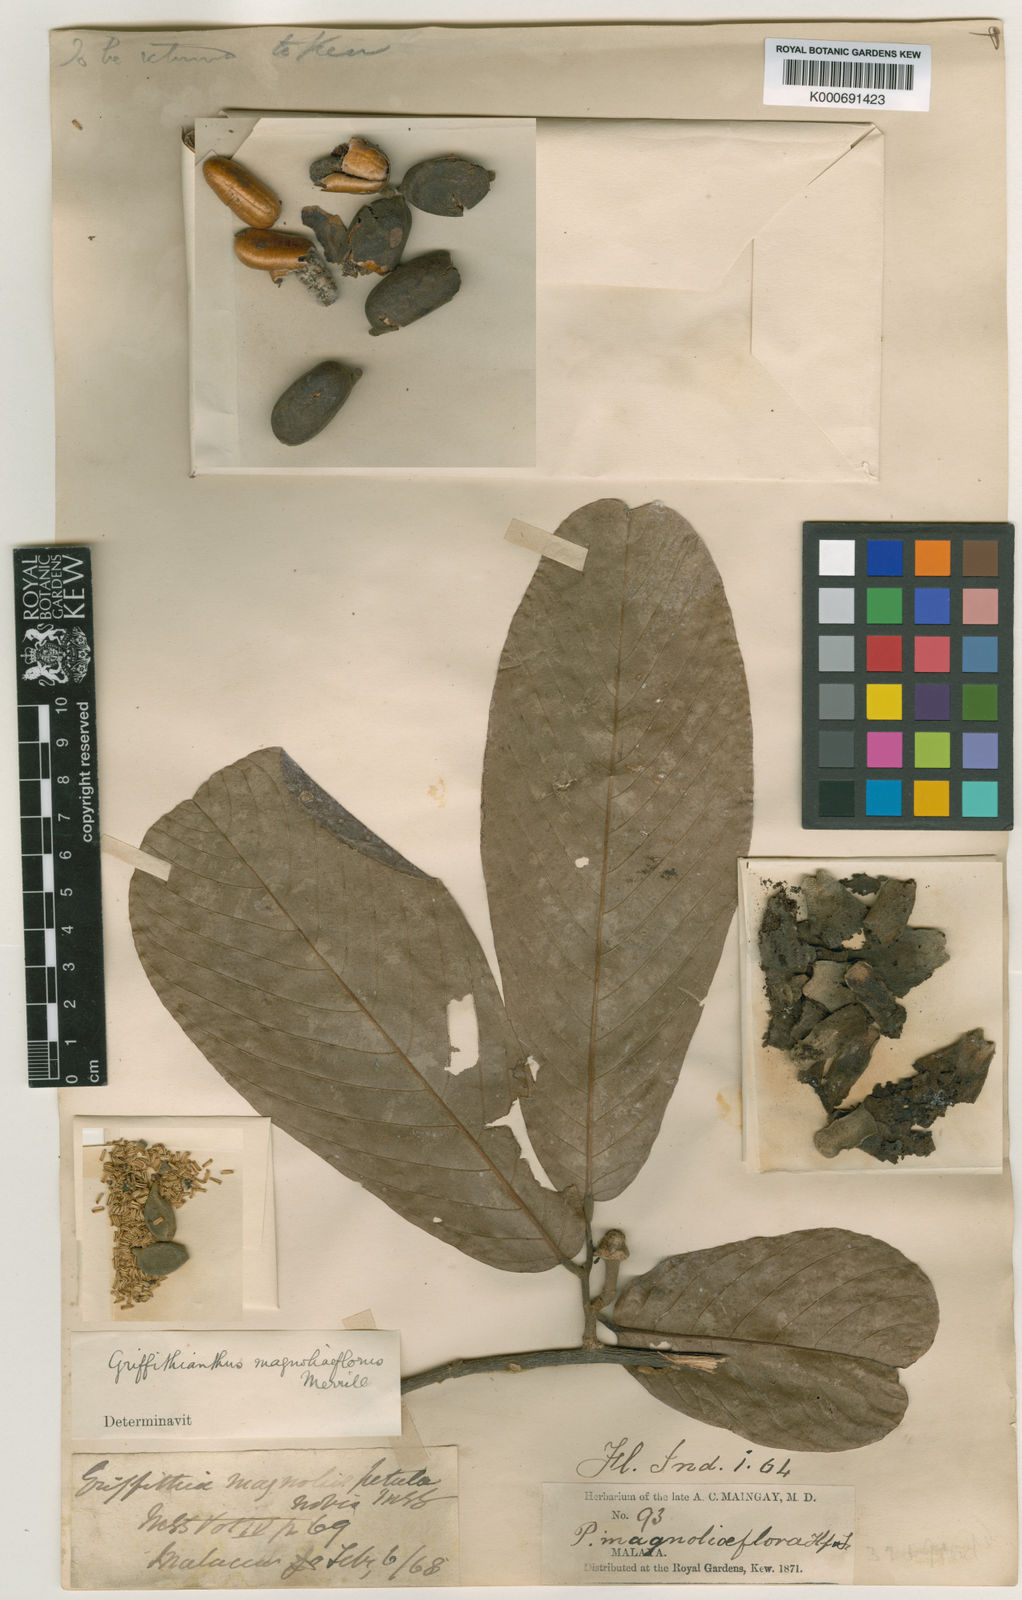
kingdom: Plantae
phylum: Tracheophyta
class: Magnoliopsida
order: Magnoliales
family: Annonaceae
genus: Enicosanthum
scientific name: Enicosanthum magnoliiflorum
